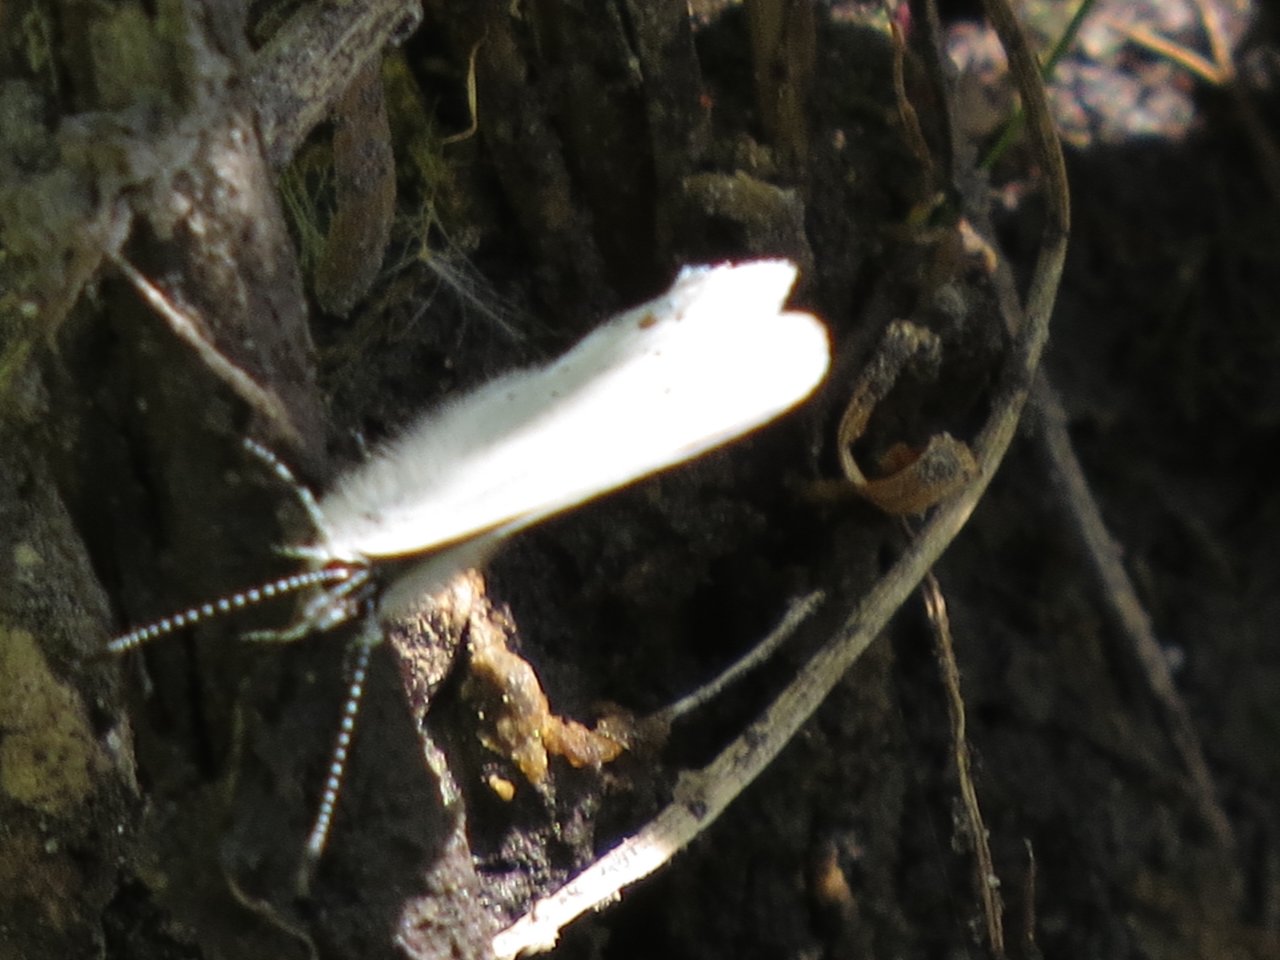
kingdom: Animalia
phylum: Arthropoda
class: Insecta
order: Lepidoptera
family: Lycaenidae
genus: Elkalyce
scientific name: Elkalyce amyntula
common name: Western Tailed-Blue
